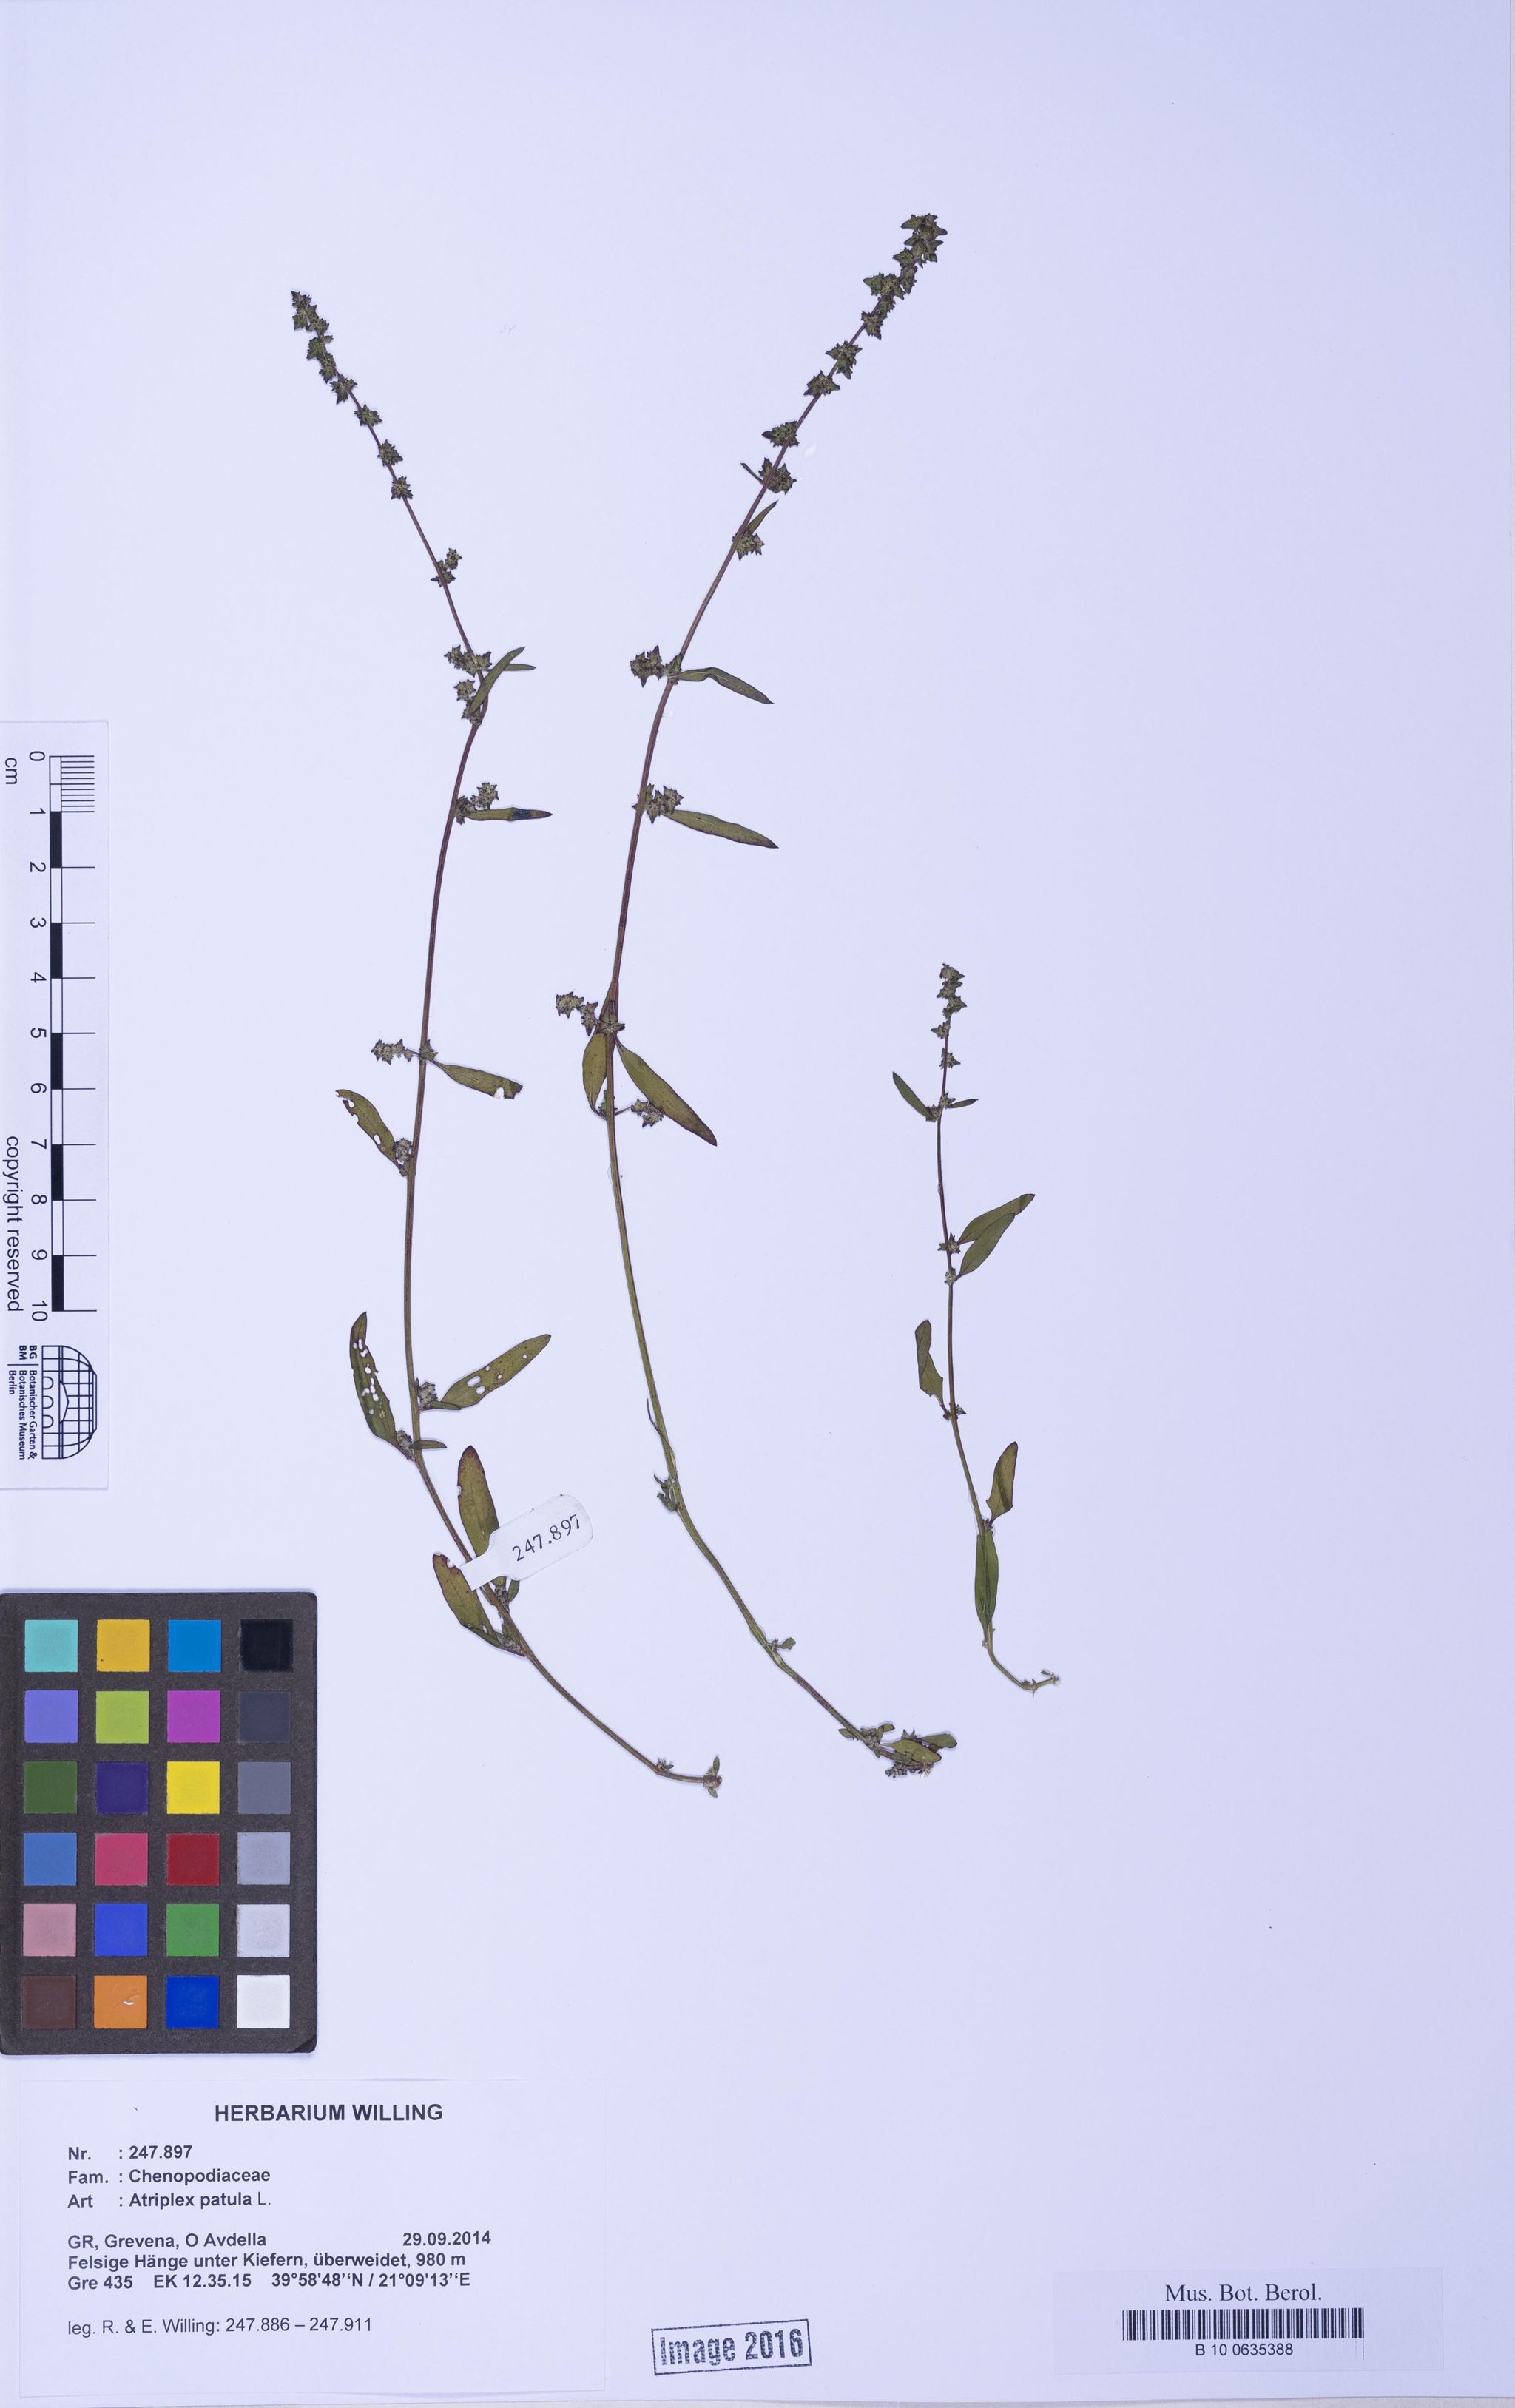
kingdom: Plantae
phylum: Tracheophyta
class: Magnoliopsida
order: Caryophyllales
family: Amaranthaceae
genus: Atriplex
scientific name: Atriplex patula
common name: Common orache
